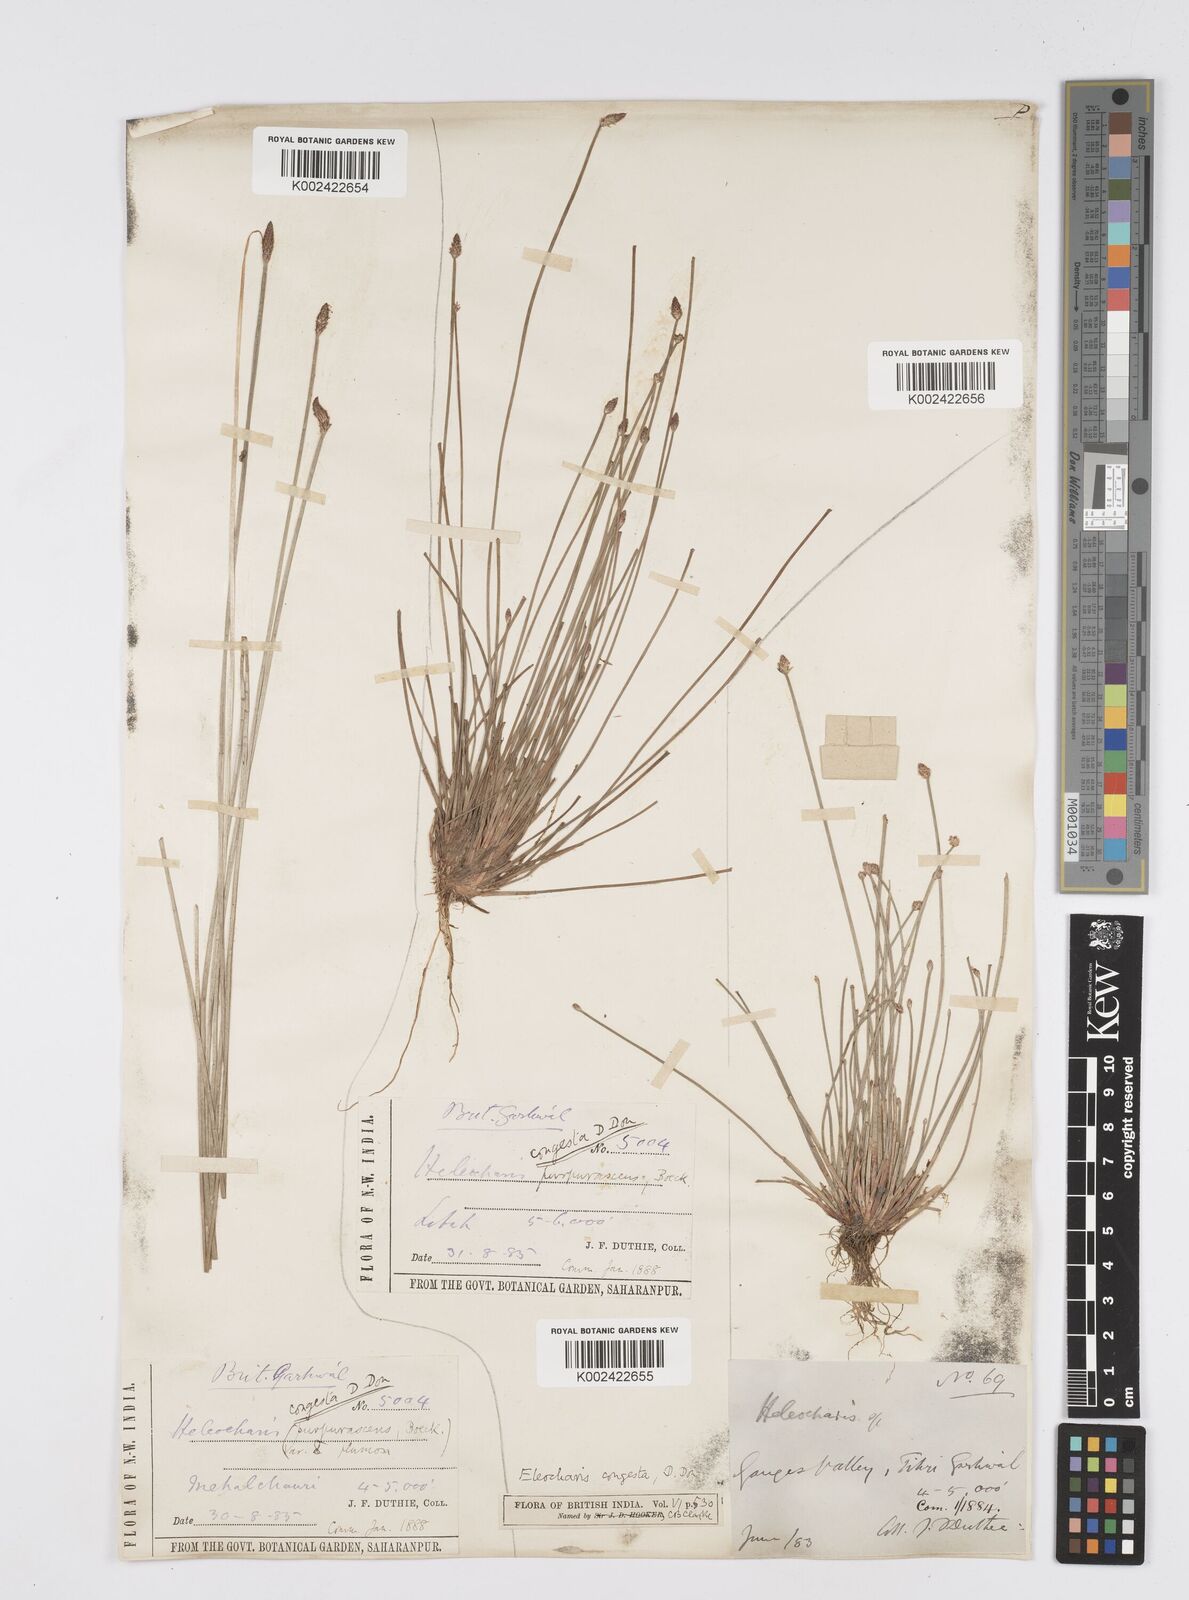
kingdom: Plantae
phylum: Tracheophyta
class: Liliopsida
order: Poales
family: Cyperaceae
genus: Eleocharis
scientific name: Eleocharis congesta
